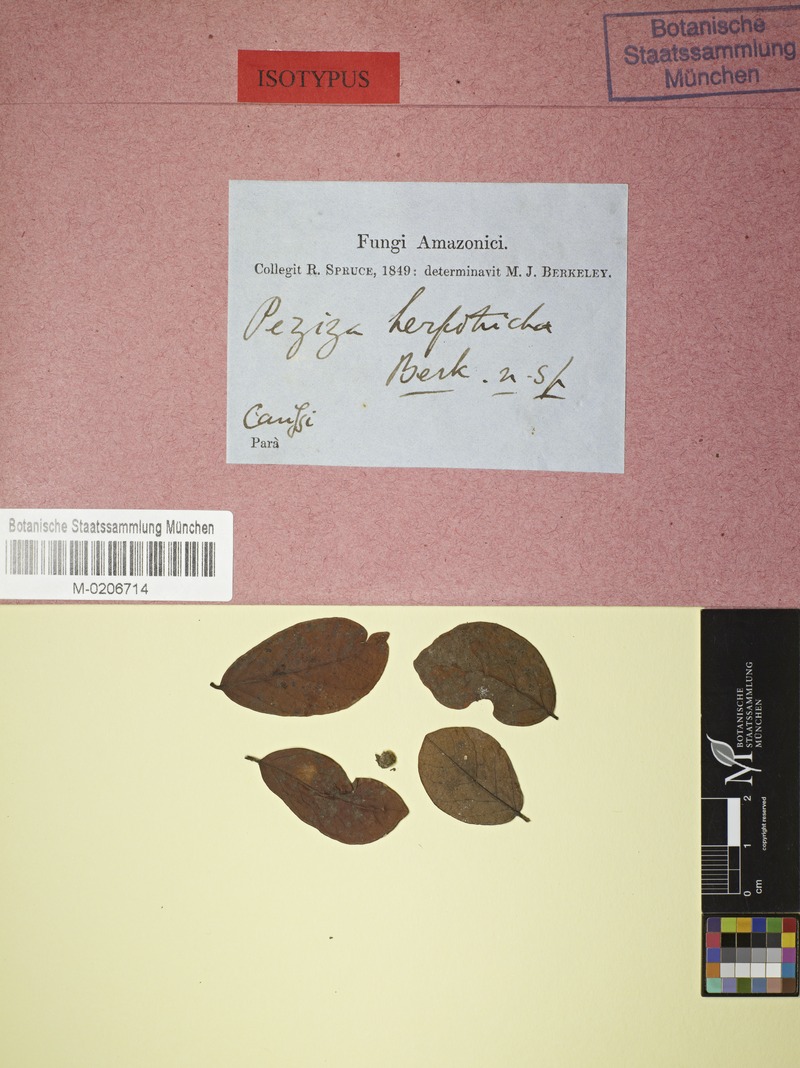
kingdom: Fungi
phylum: Ascomycota
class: Leotiomycetes
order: Phacidiales
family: Helicogoniaceae
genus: Calloriopsis
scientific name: Calloriopsis herpotricha
